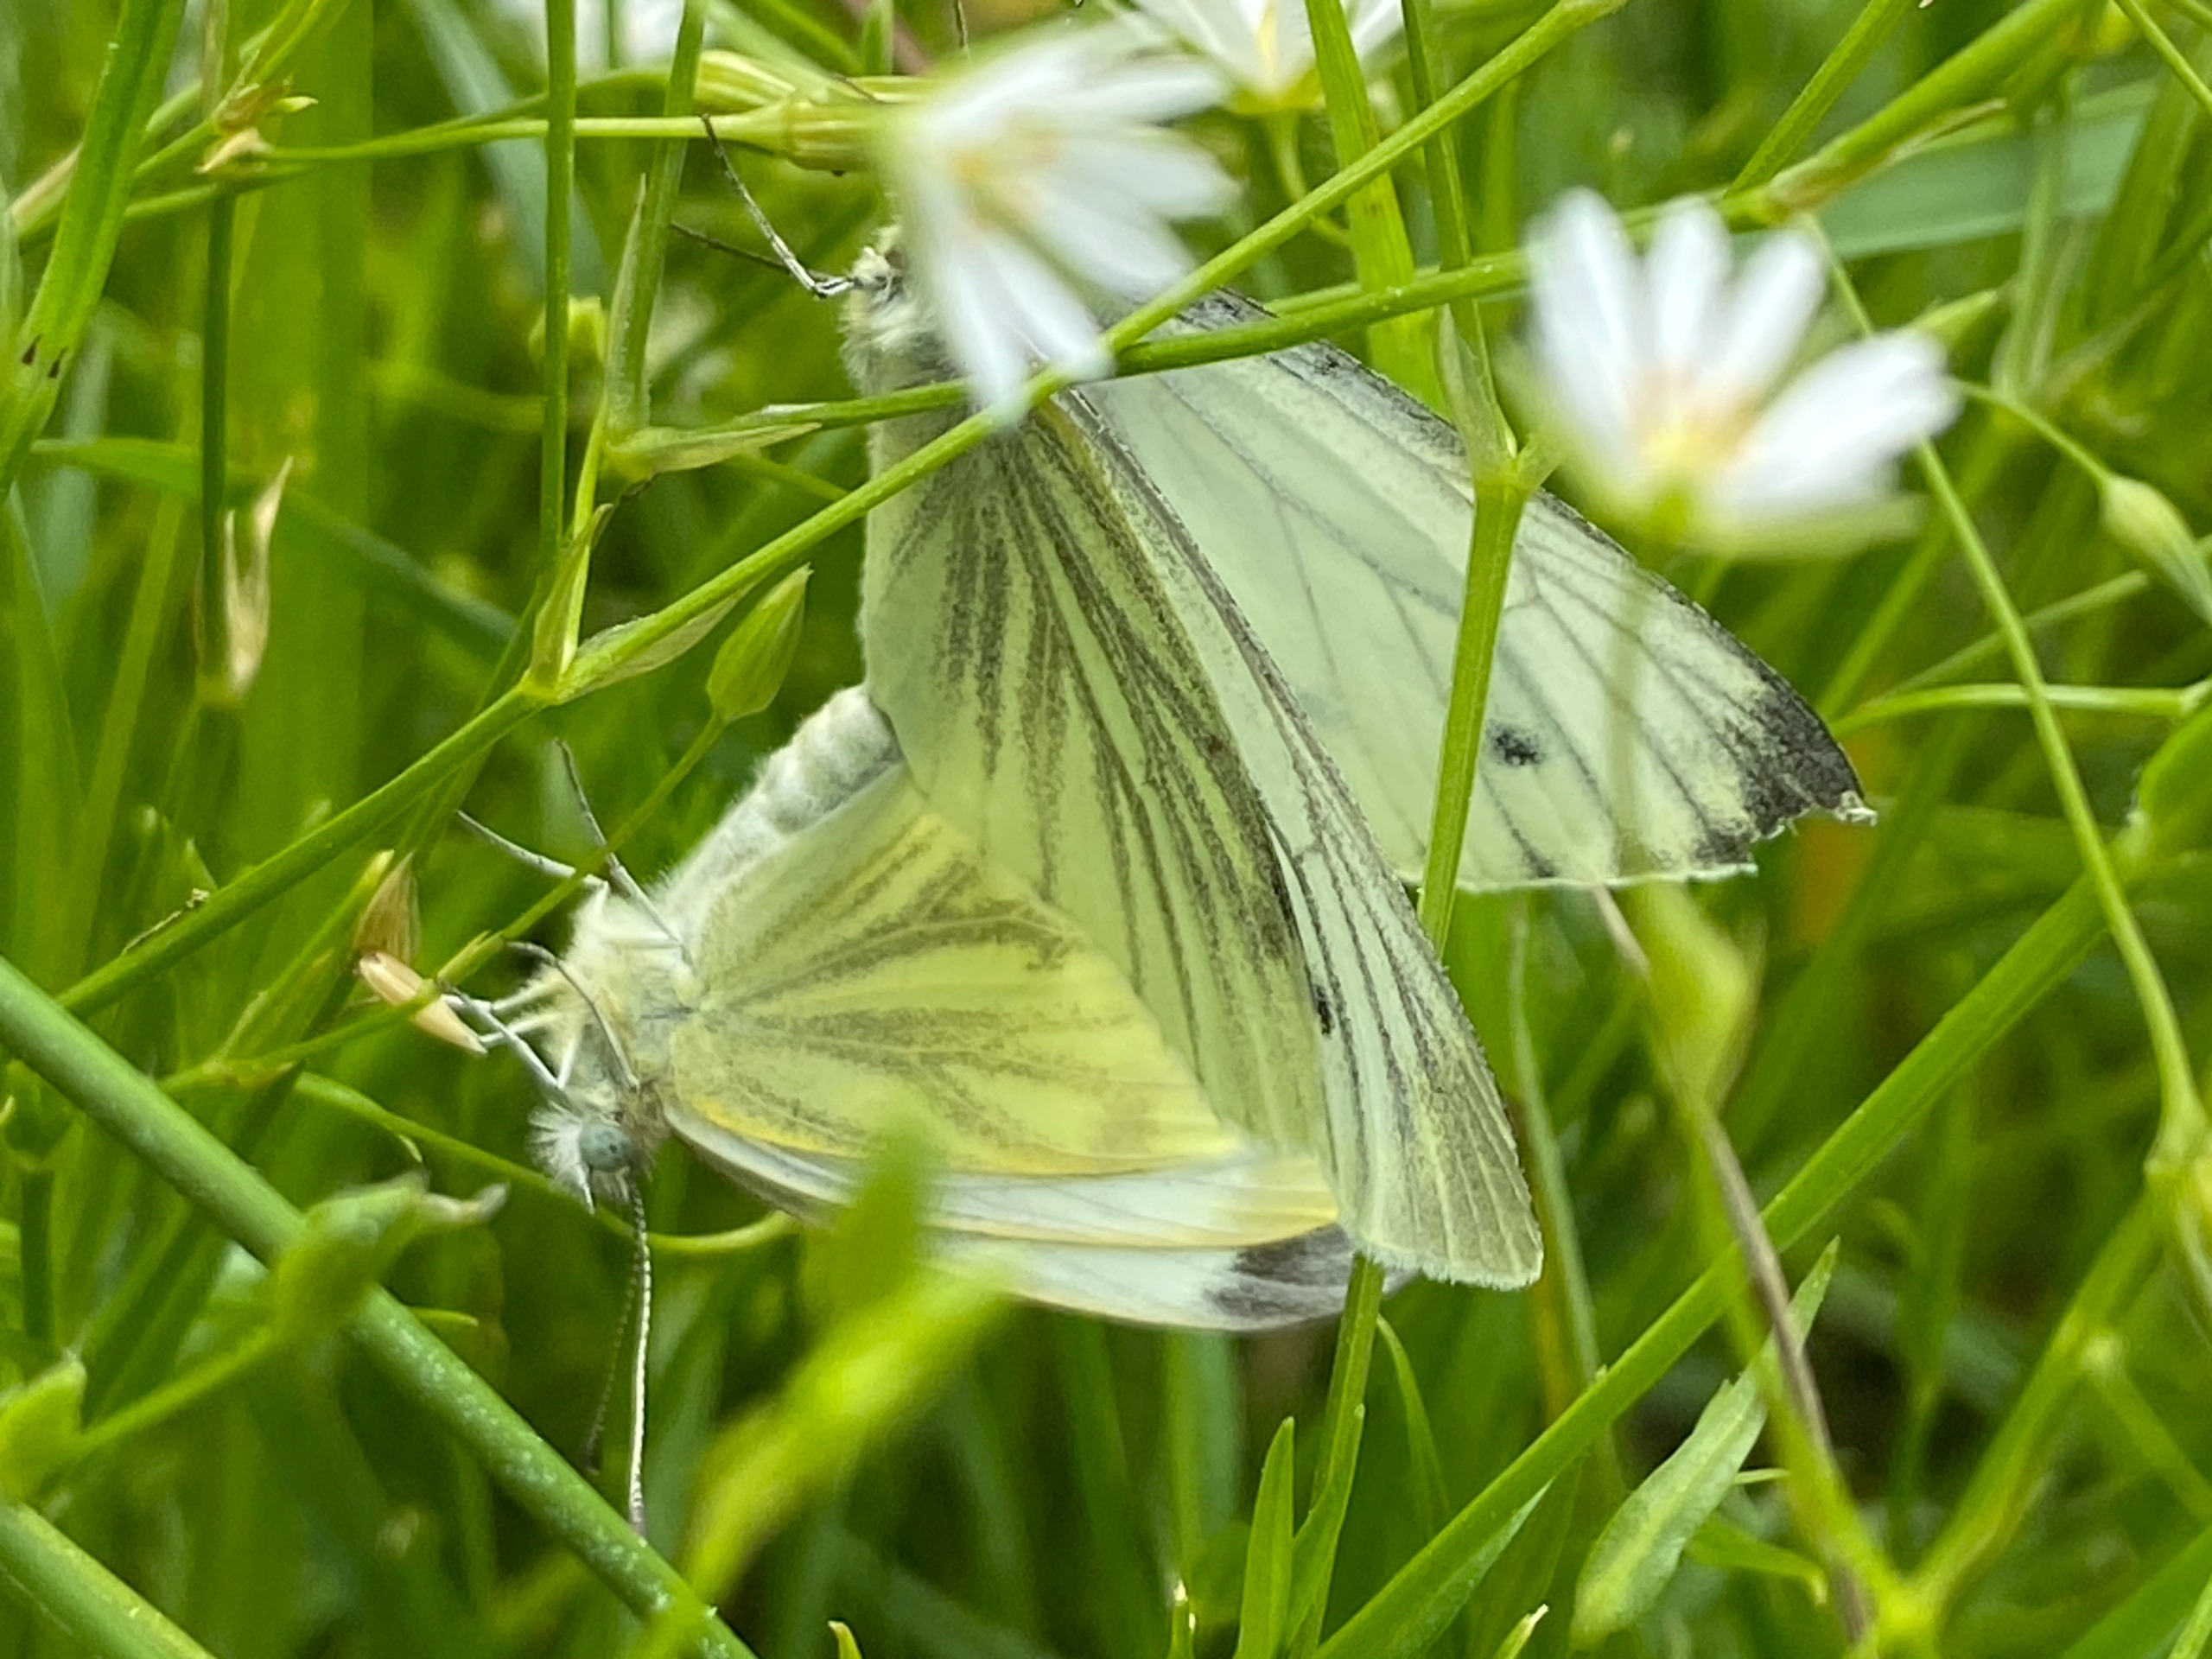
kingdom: Animalia
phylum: Arthropoda
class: Insecta
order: Lepidoptera
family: Pieridae
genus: Pieris
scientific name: Pieris napi
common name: Grønåret kålsommerfugl
